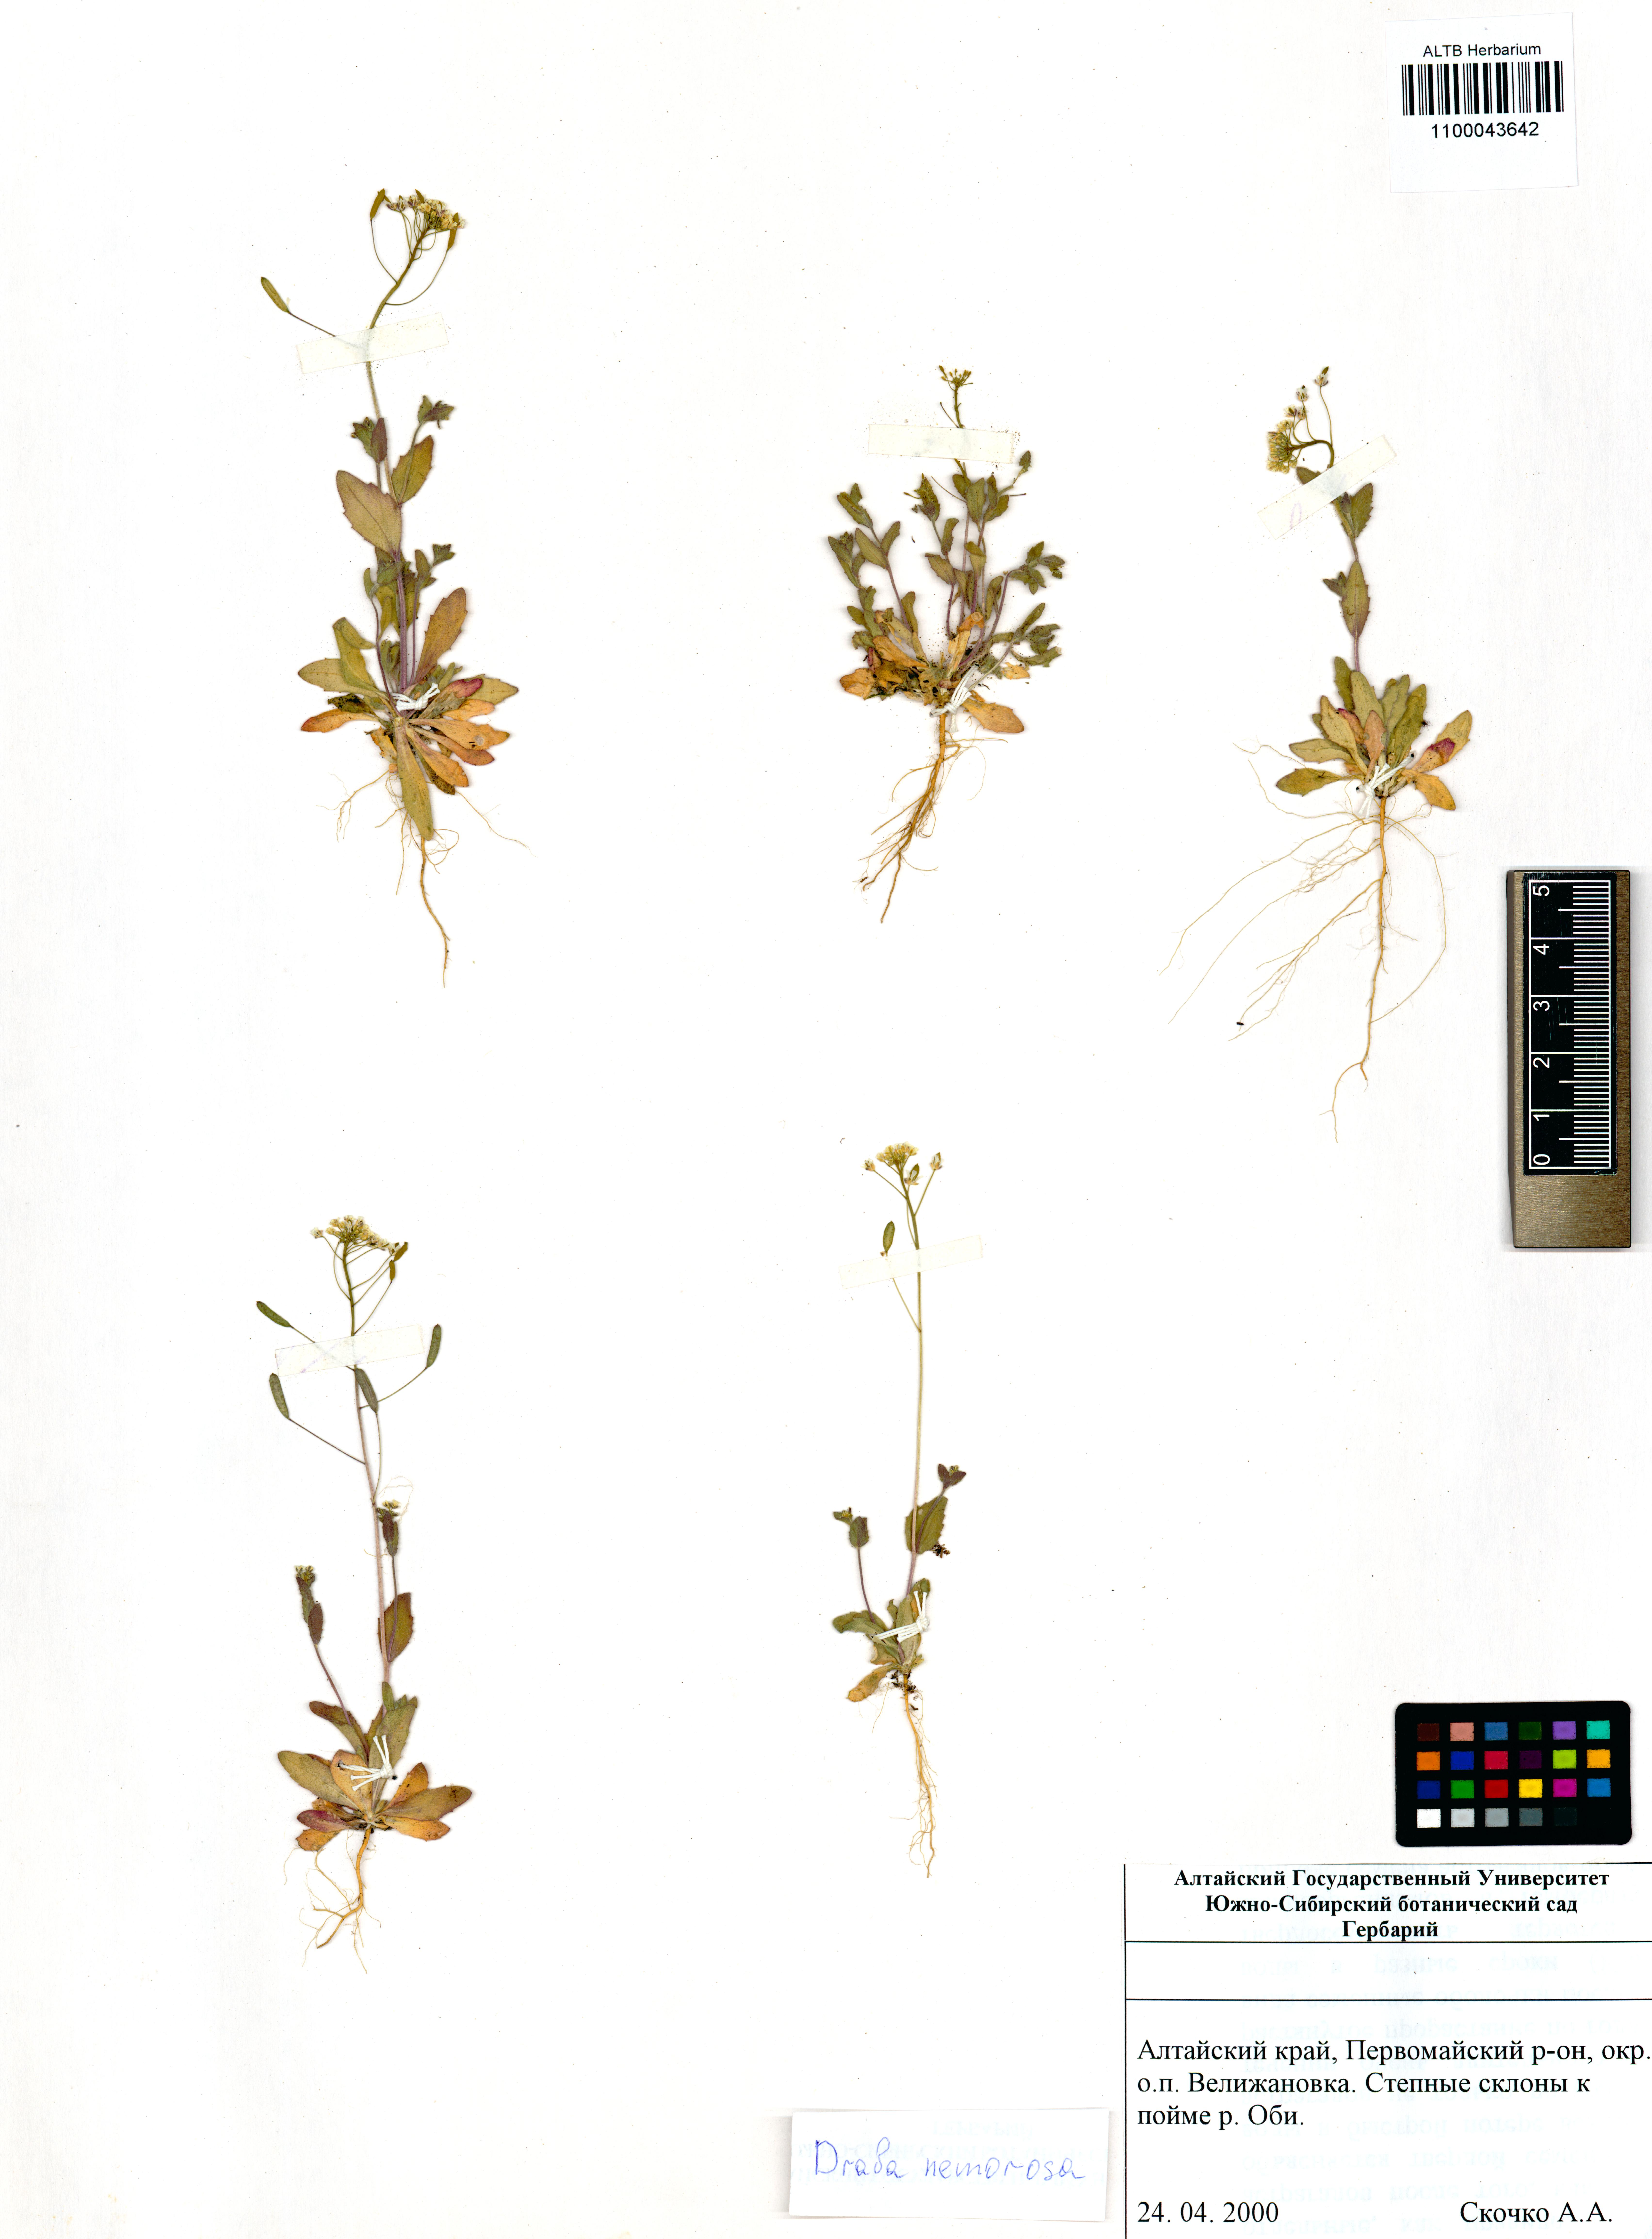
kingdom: Plantae
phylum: Tracheophyta
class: Magnoliopsida
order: Brassicales
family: Brassicaceae
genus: Draba
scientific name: Draba nemorosa
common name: Wood whitlow-grass
